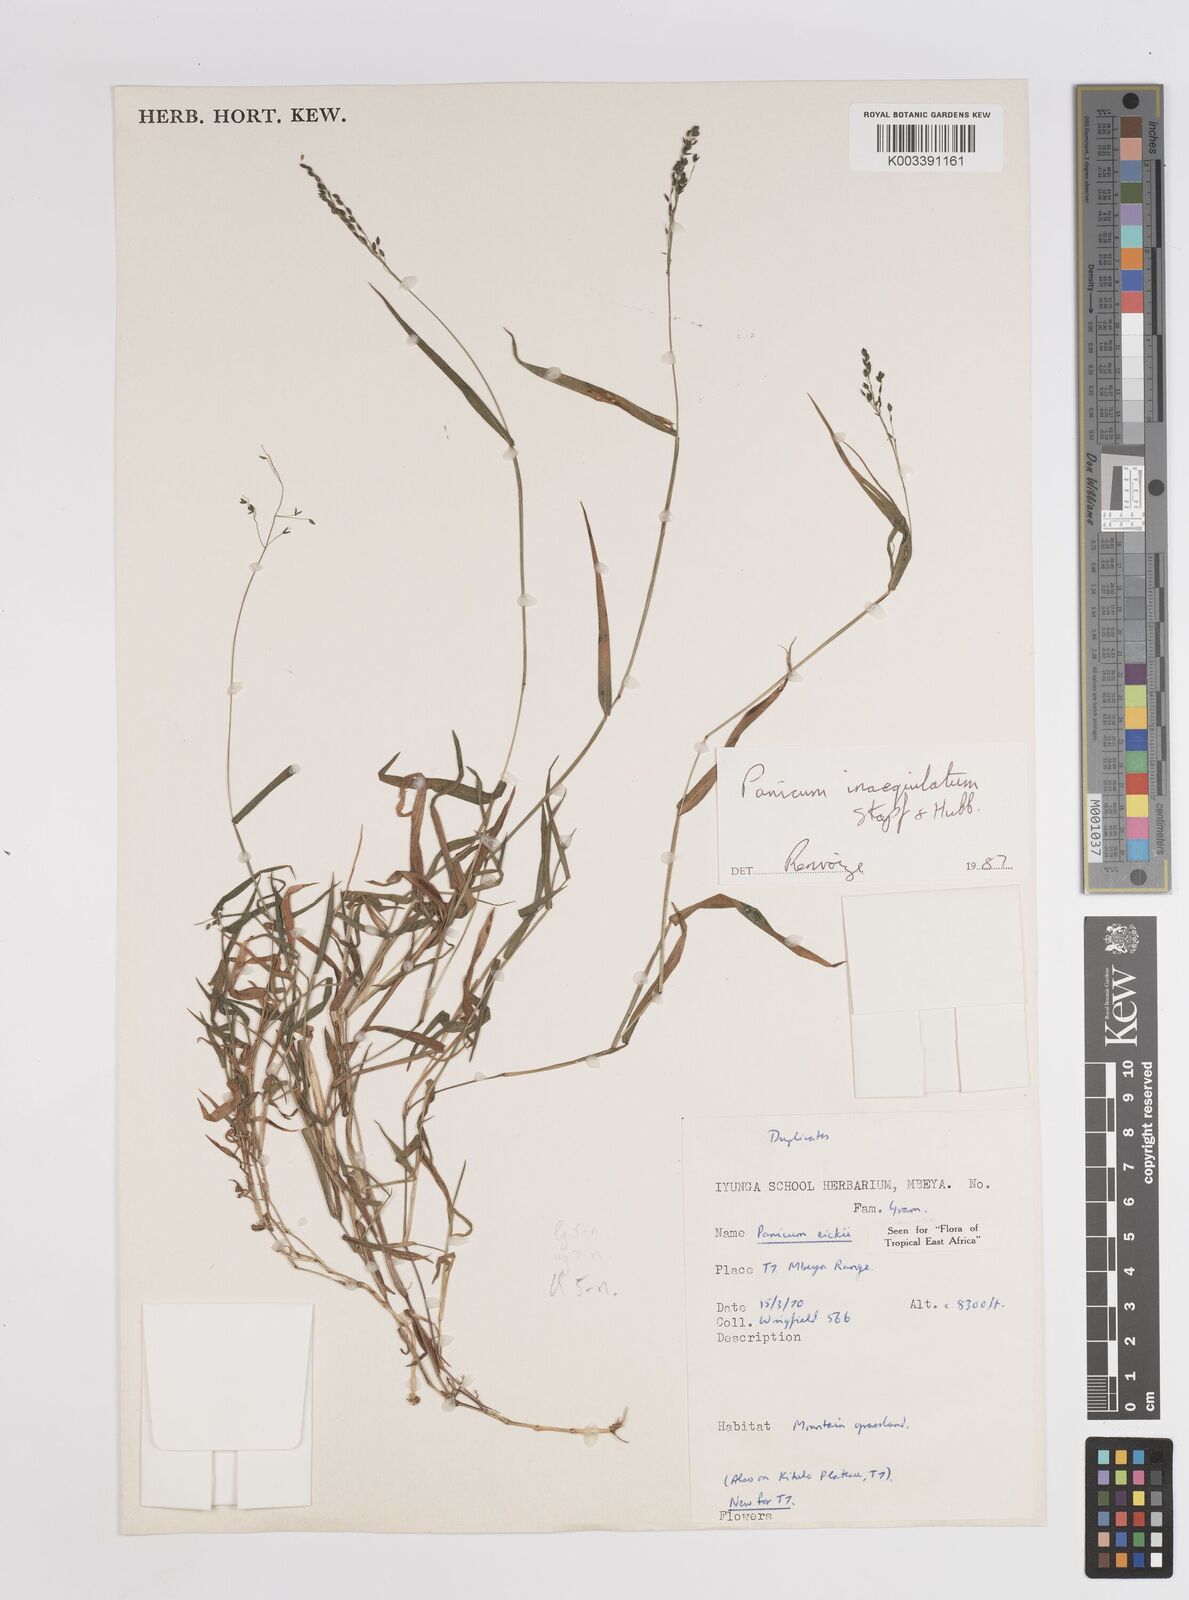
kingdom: Plantae
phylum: Tracheophyta
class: Liliopsida
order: Poales
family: Poaceae
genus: Panicum
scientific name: Panicum inaequilatum
